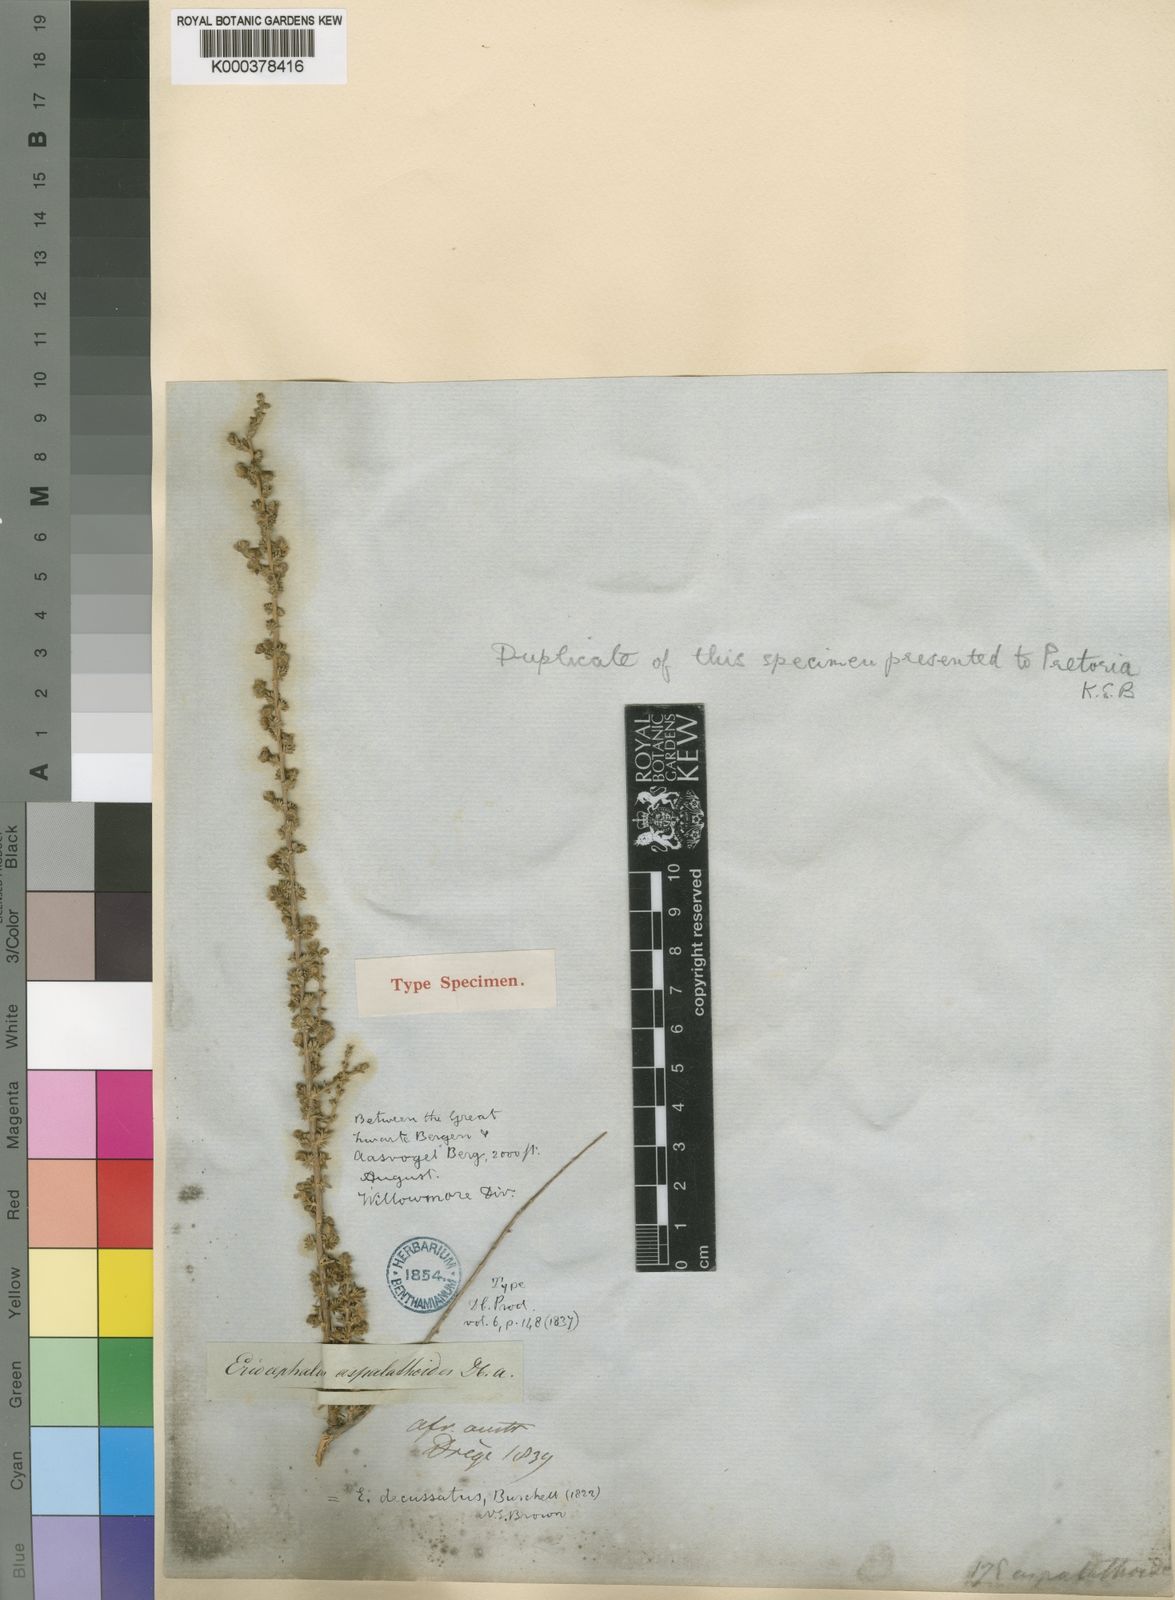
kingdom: Plantae
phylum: Tracheophyta
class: Magnoliopsida
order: Asterales
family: Asteraceae
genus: Eriocephalus
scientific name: Eriocephalus decussatus
